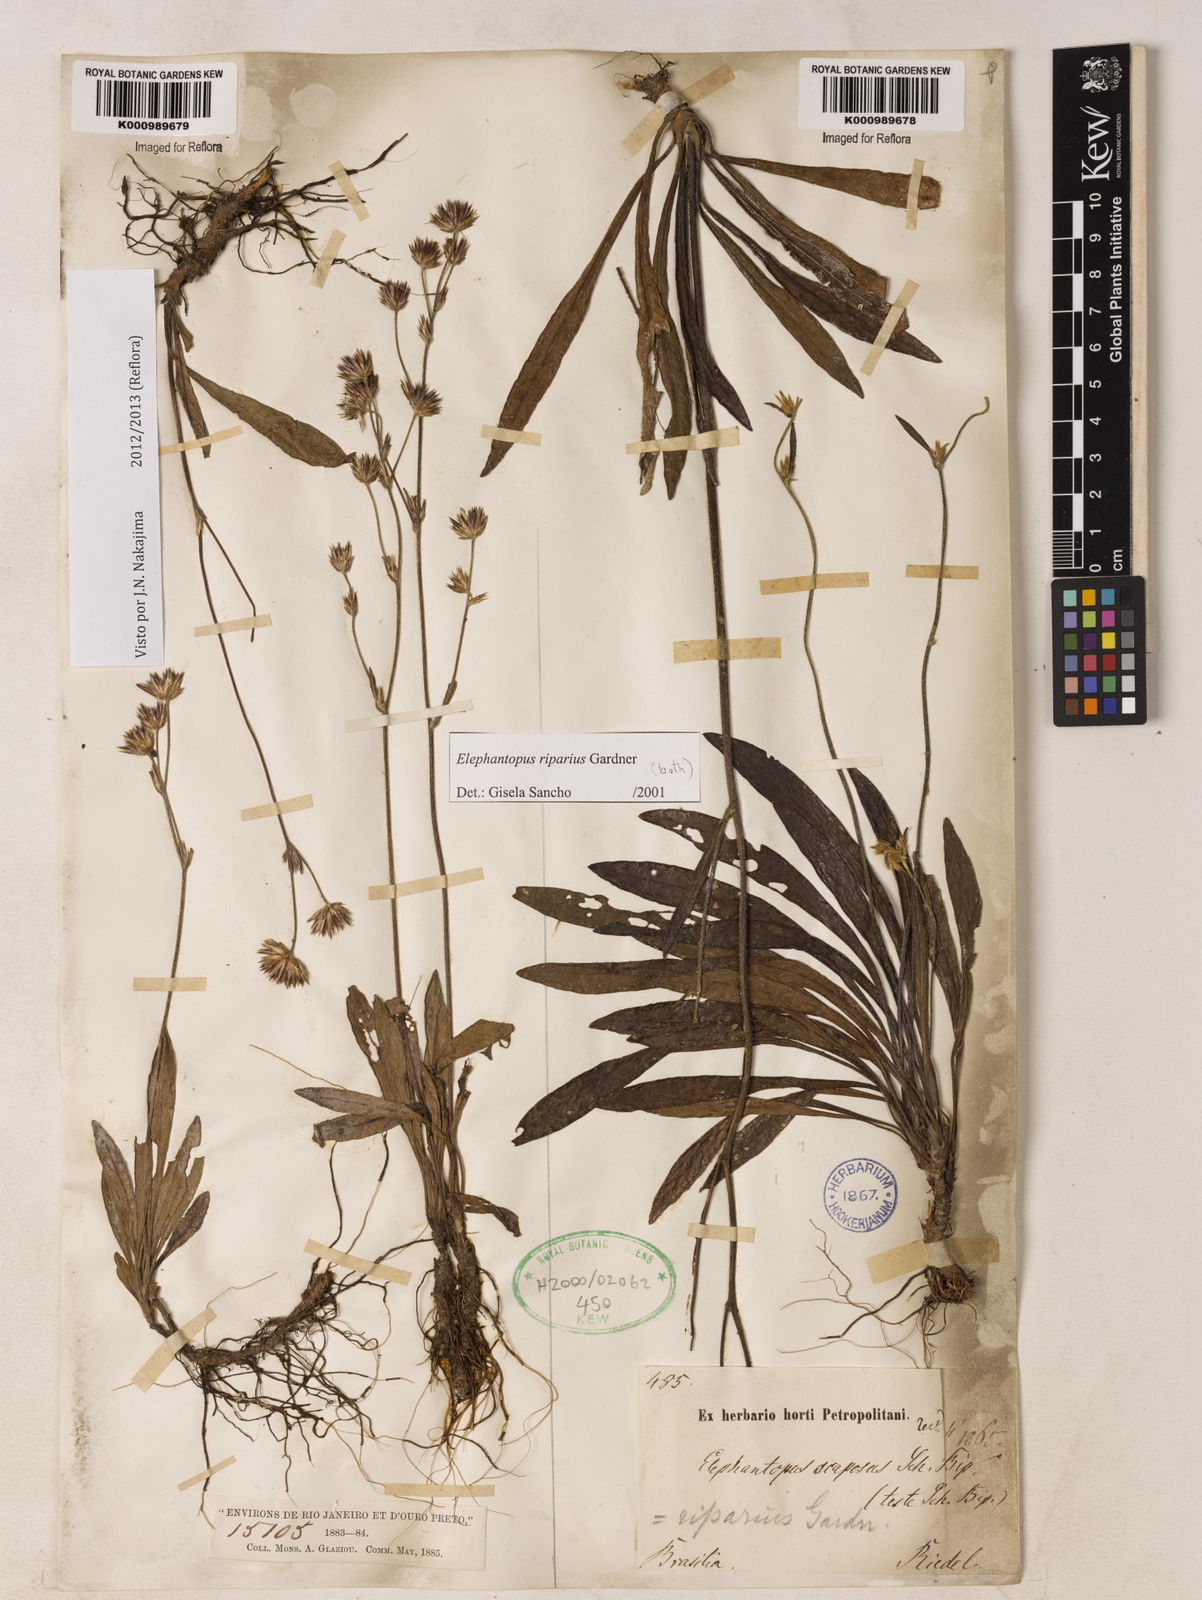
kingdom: Plantae
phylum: Tracheophyta
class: Magnoliopsida
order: Asterales
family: Asteraceae
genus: Elephantopus
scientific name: Elephantopus riparius
